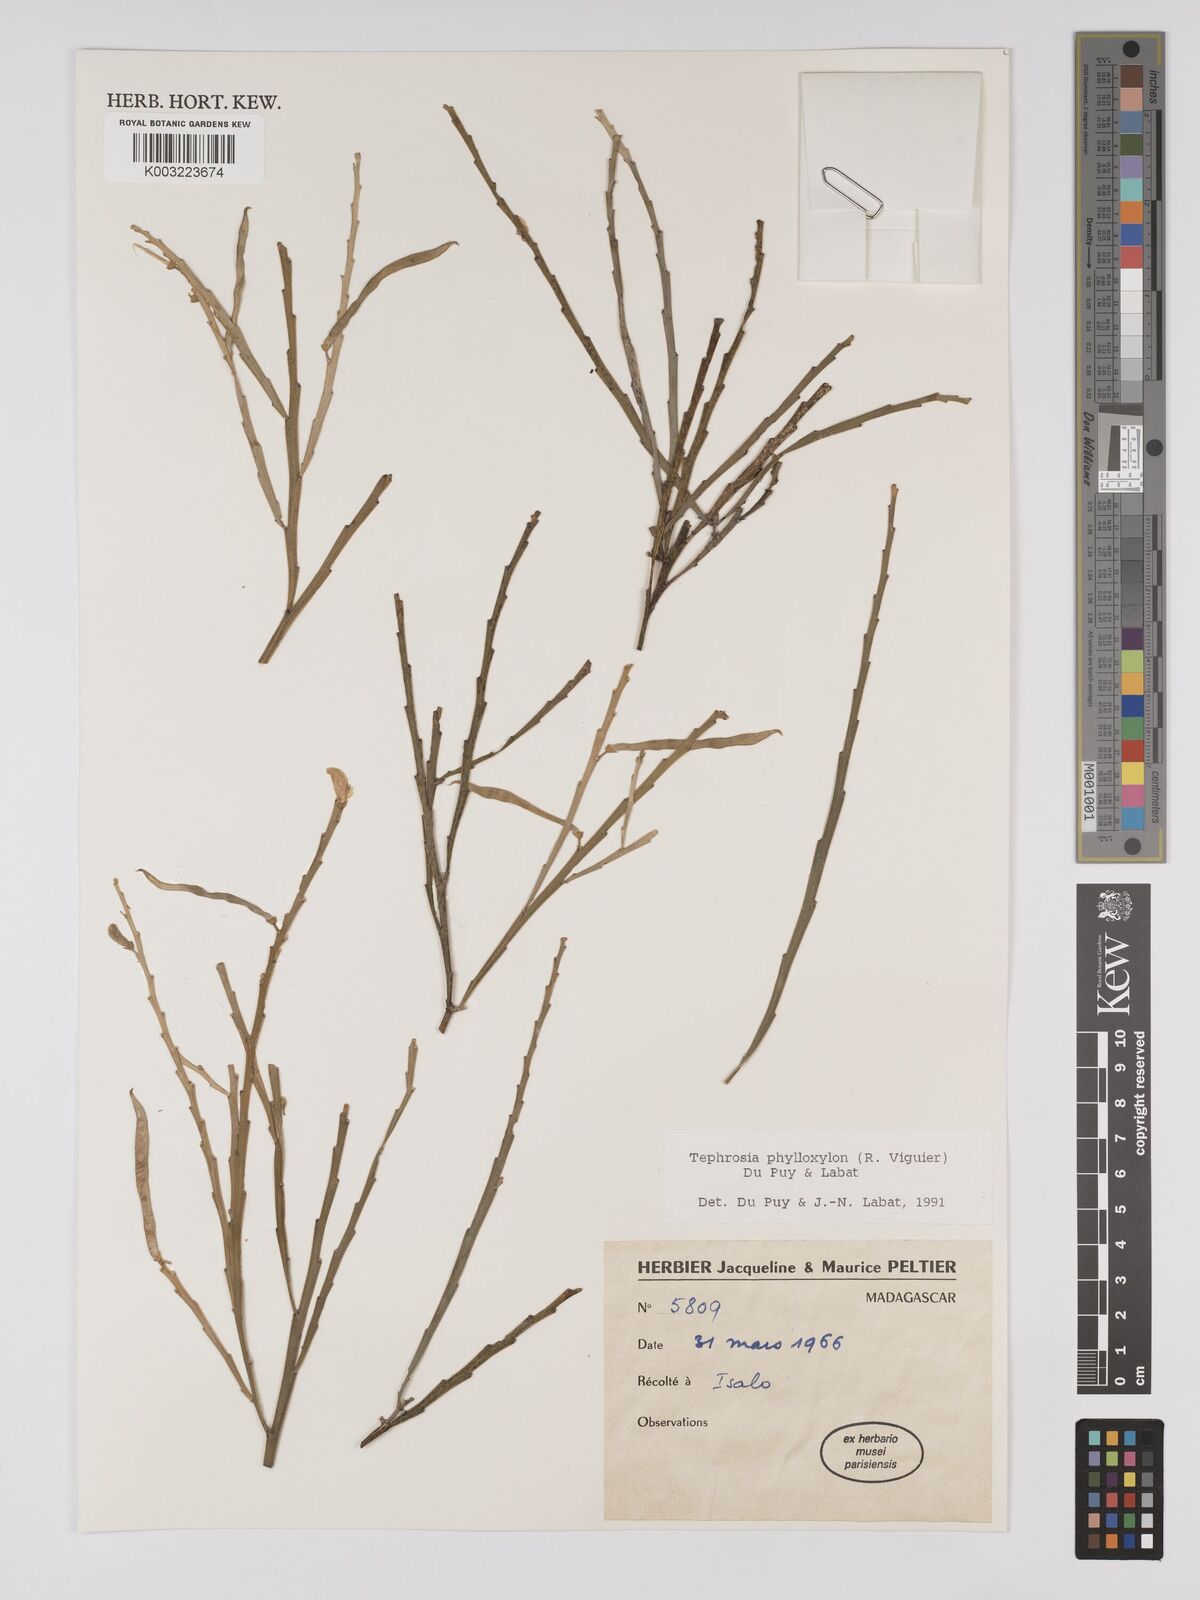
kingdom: Plantae
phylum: Tracheophyta
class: Magnoliopsida
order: Fabales
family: Fabaceae
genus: Tephrosia
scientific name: Tephrosia phylloxylon
